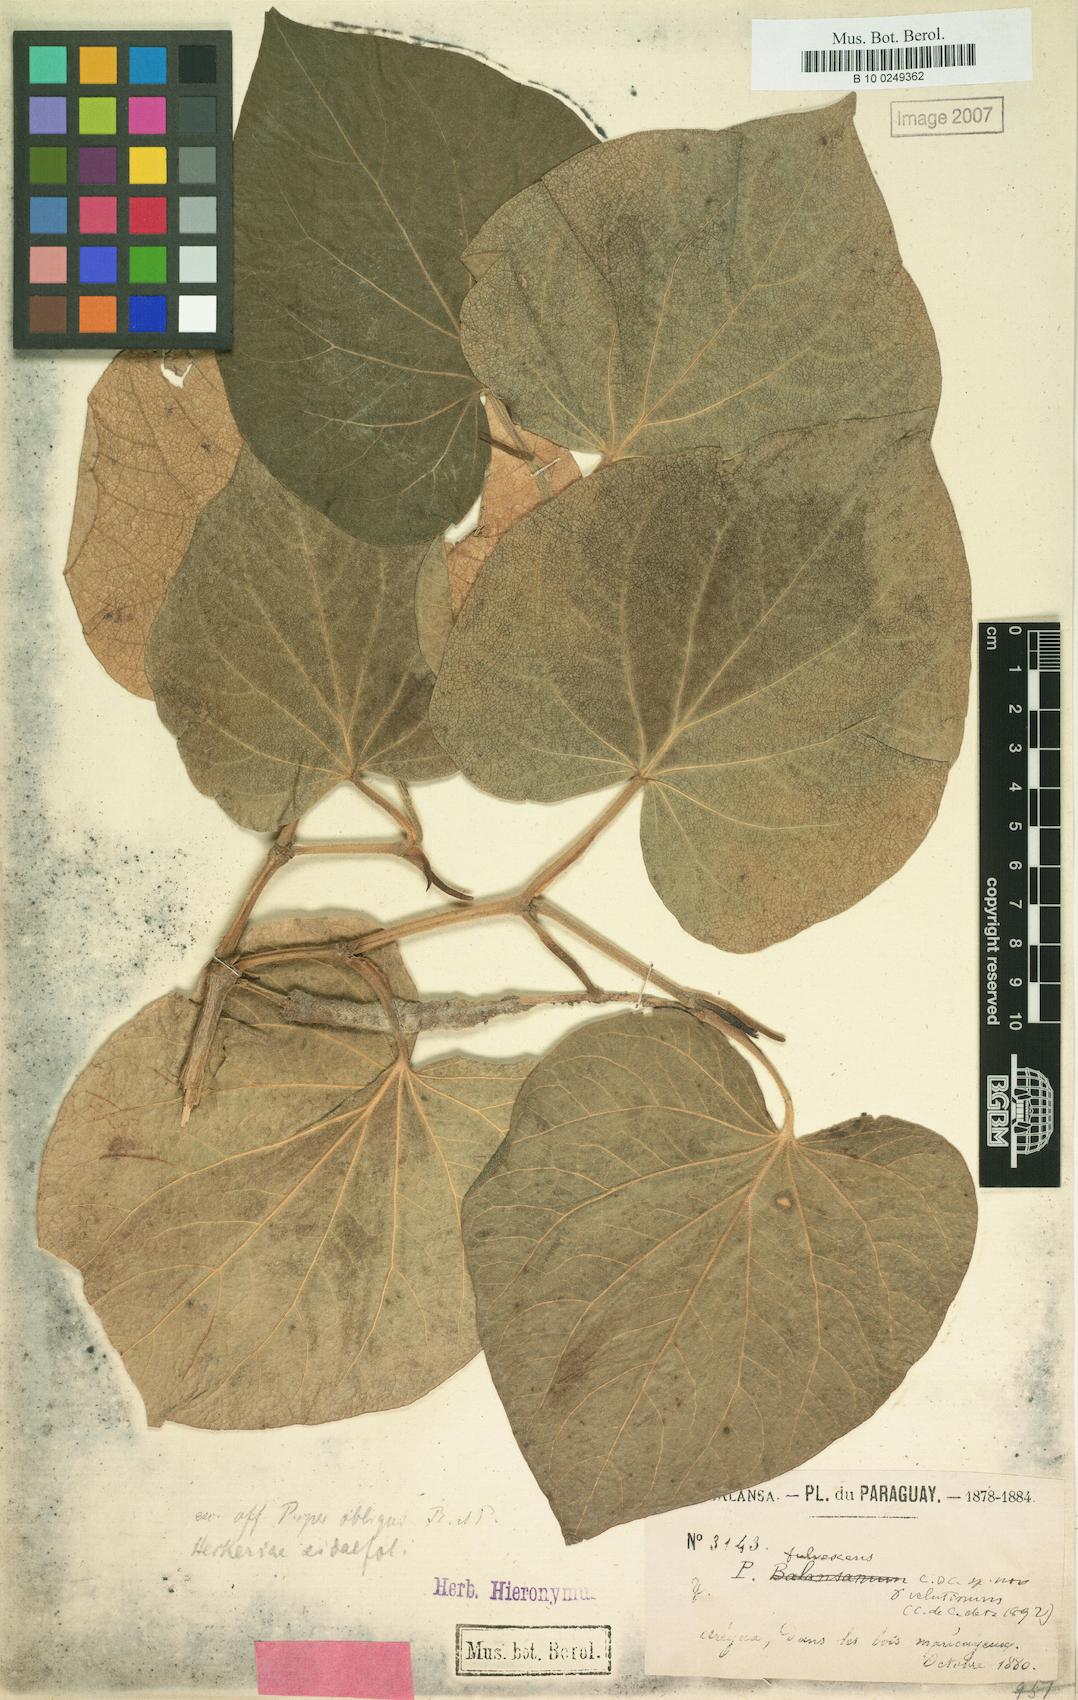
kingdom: Plantae
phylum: Tracheophyta
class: Magnoliopsida
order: Piperales
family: Piperaceae
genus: Piper
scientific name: Piper regnellii
